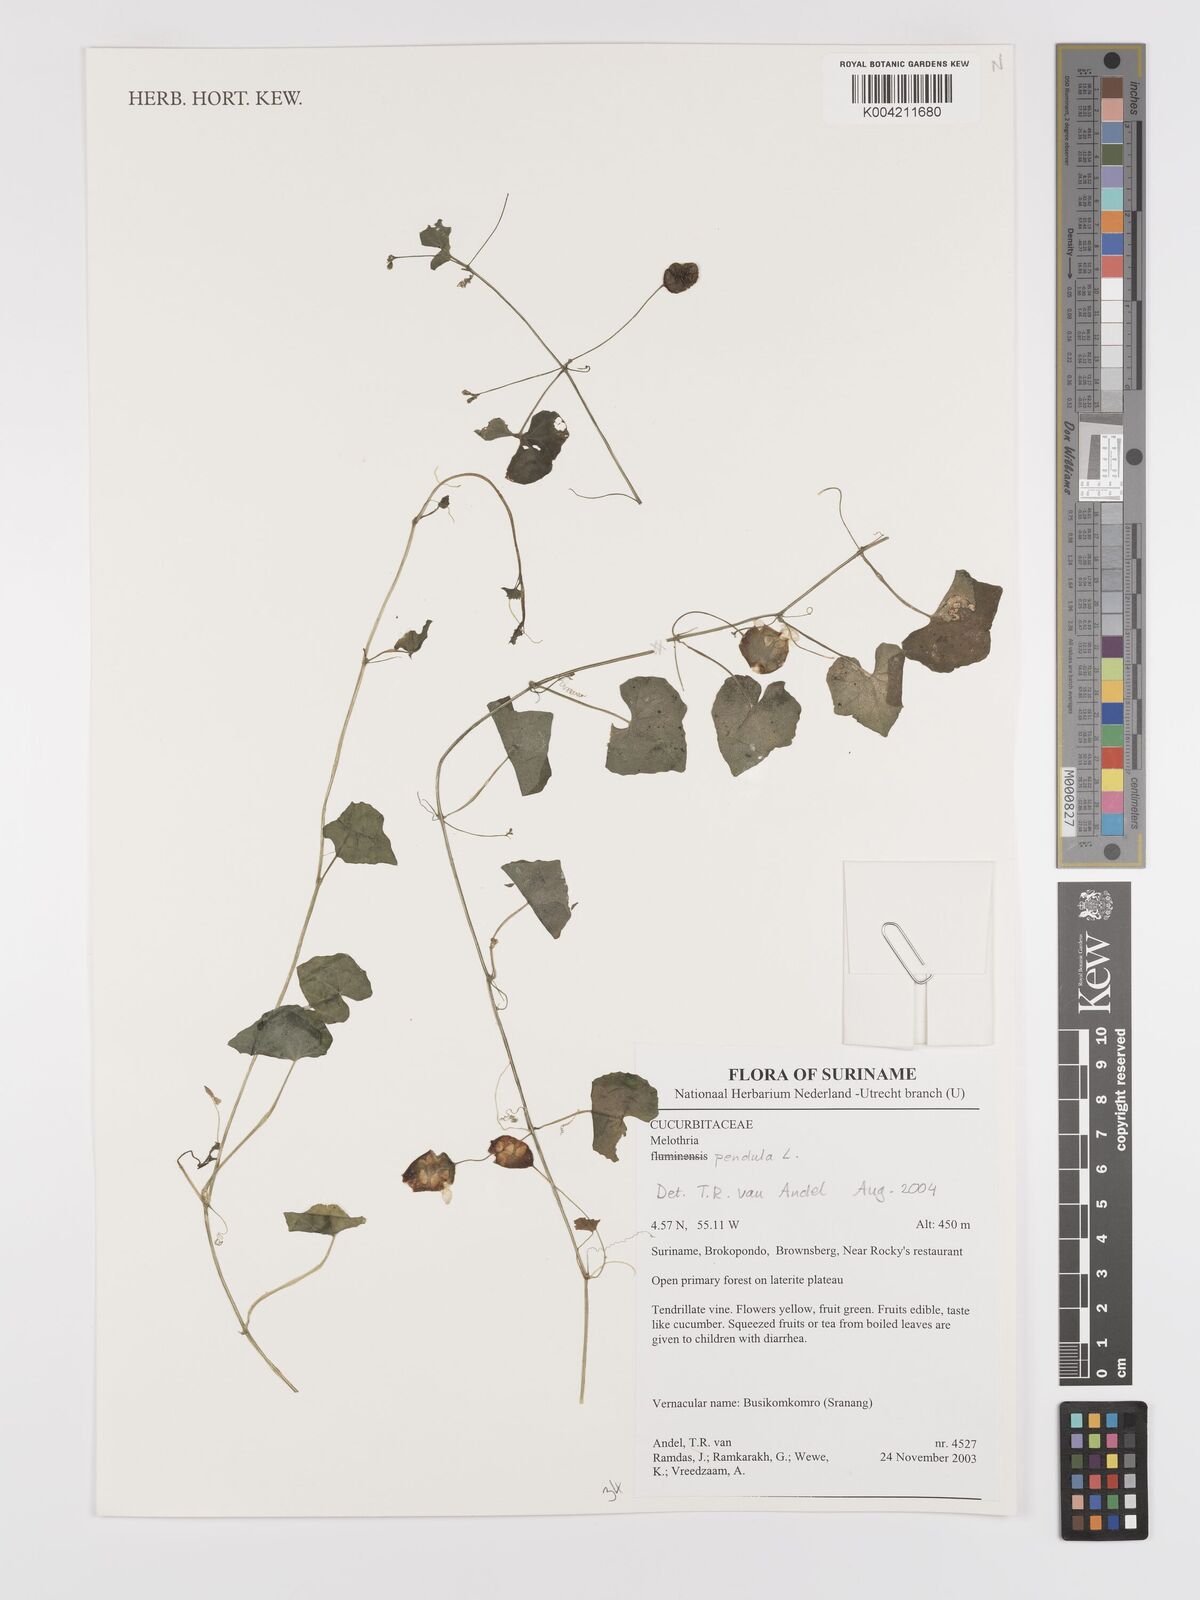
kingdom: Plantae
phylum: Tracheophyta
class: Magnoliopsida
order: Cucurbitales
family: Cucurbitaceae
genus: Melothria
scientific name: Melothria pendula
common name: Creeping-cucumber
